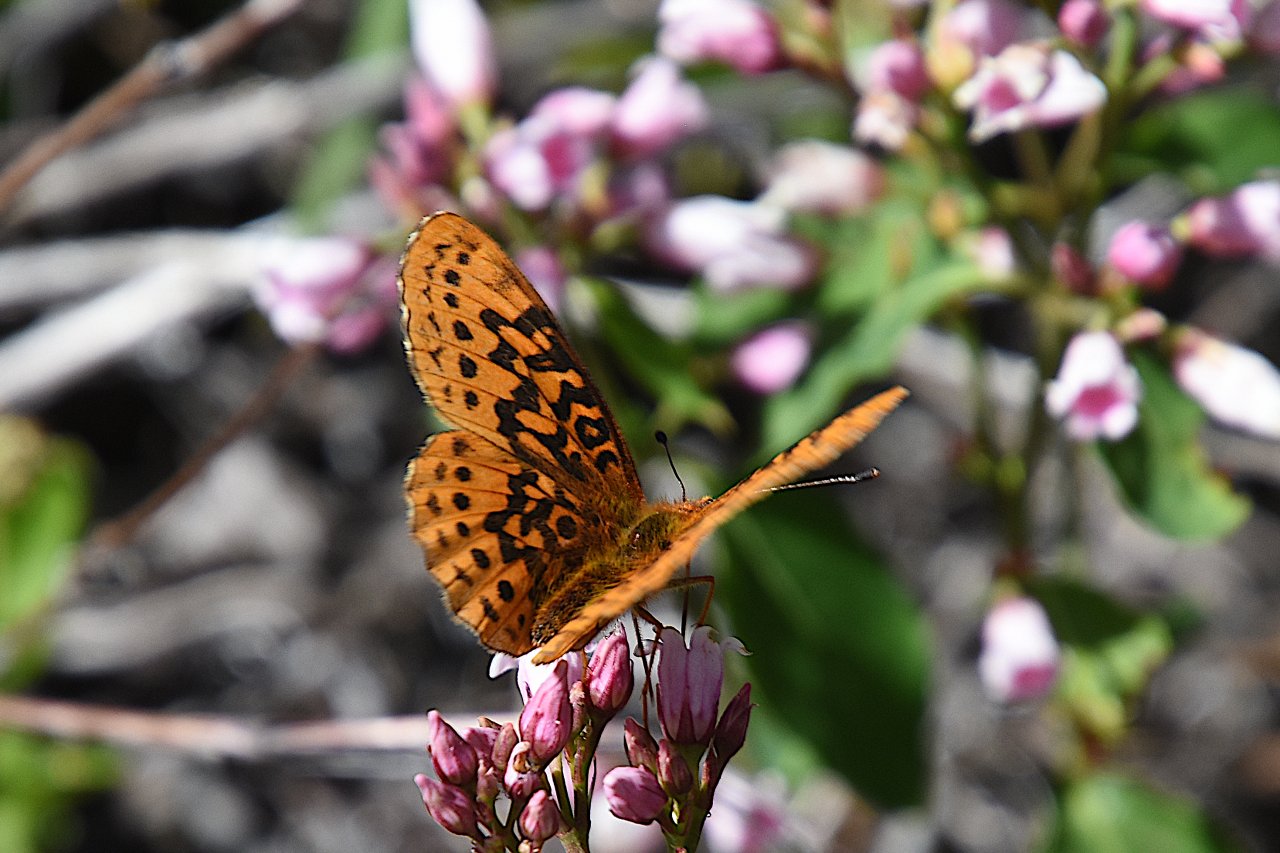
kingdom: Animalia
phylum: Arthropoda
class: Insecta
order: Lepidoptera
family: Nymphalidae
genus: Boloria
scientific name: Boloria epithore
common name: Pacific Fritillary
